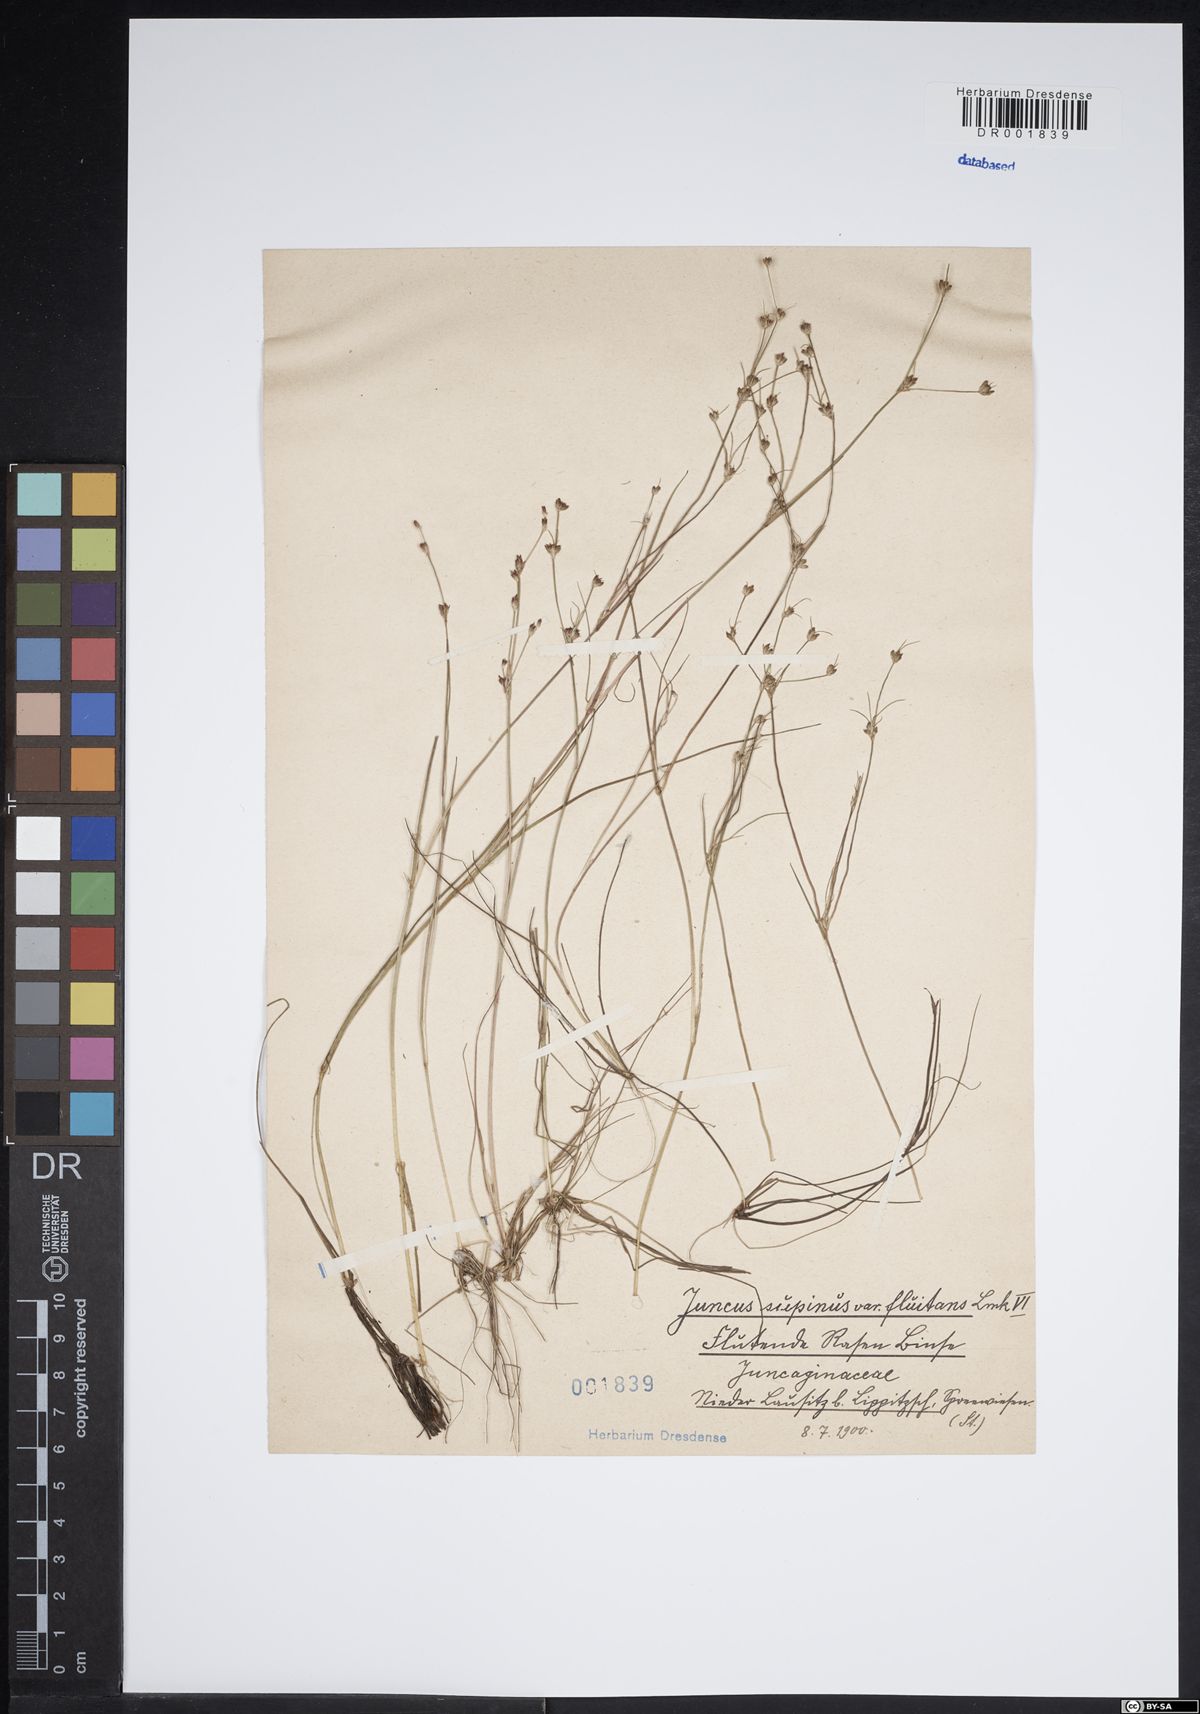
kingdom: Plantae
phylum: Tracheophyta
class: Liliopsida
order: Poales
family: Juncaceae
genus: Juncus
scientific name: Juncus bulbosus
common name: Bulbous rush
